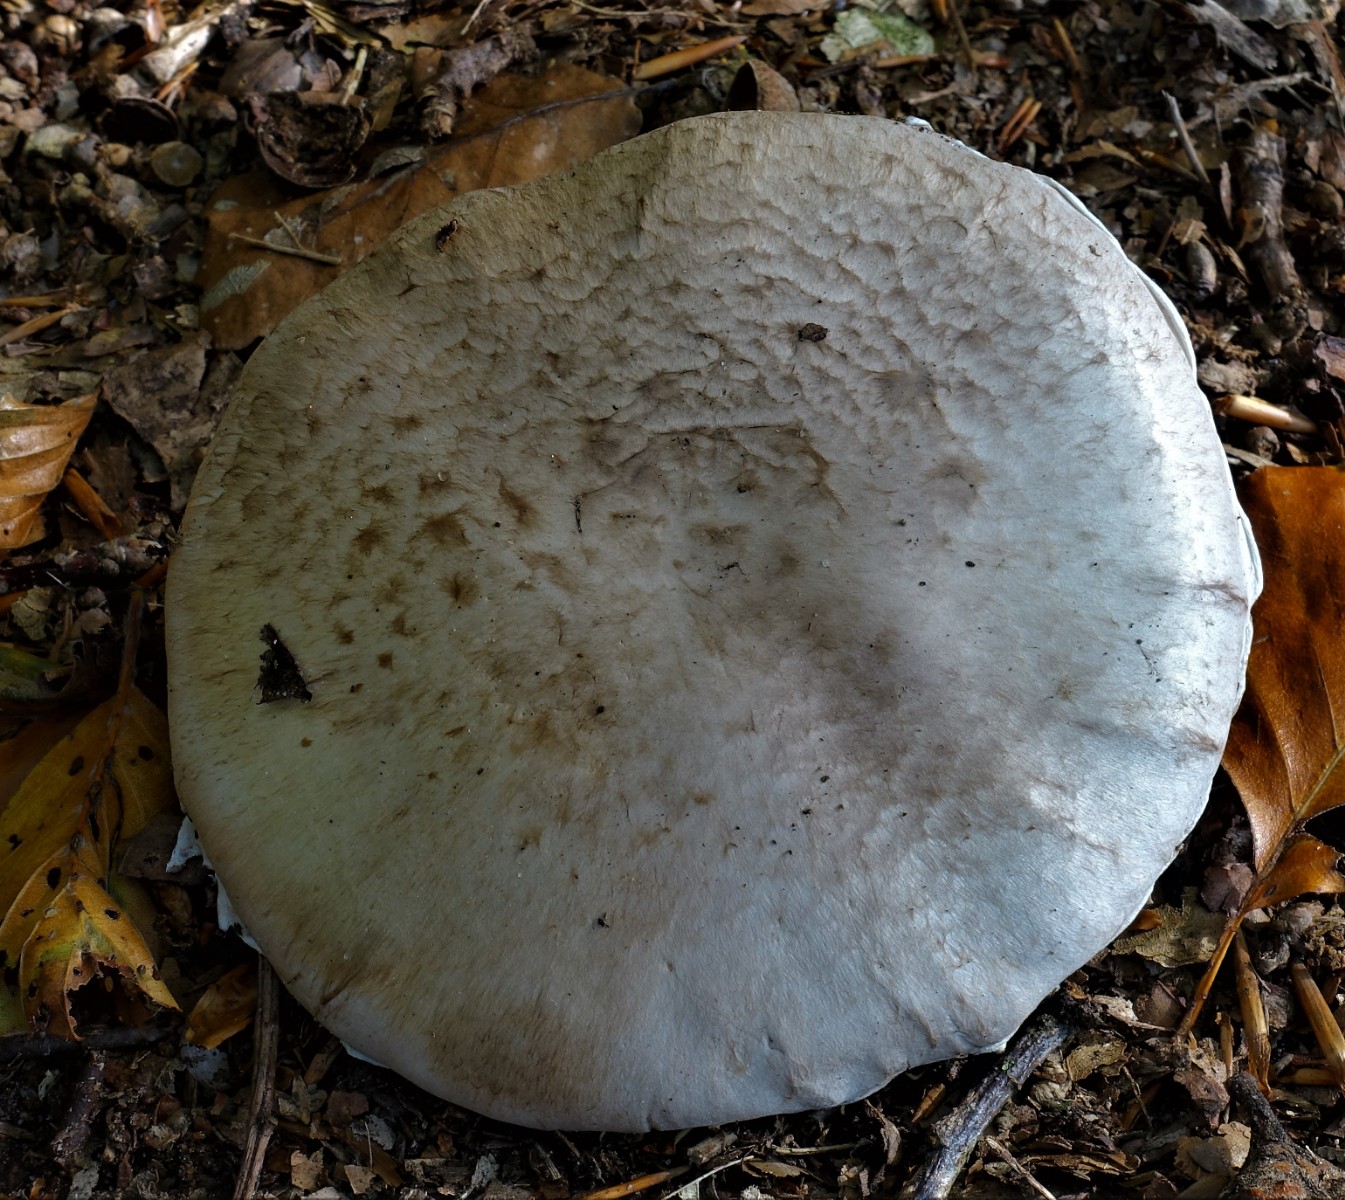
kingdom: Fungi
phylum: Basidiomycota
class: Agaricomycetes
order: Agaricales
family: Agaricaceae
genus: Agaricus
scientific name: Agaricus litoralis
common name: kyst-champignon
